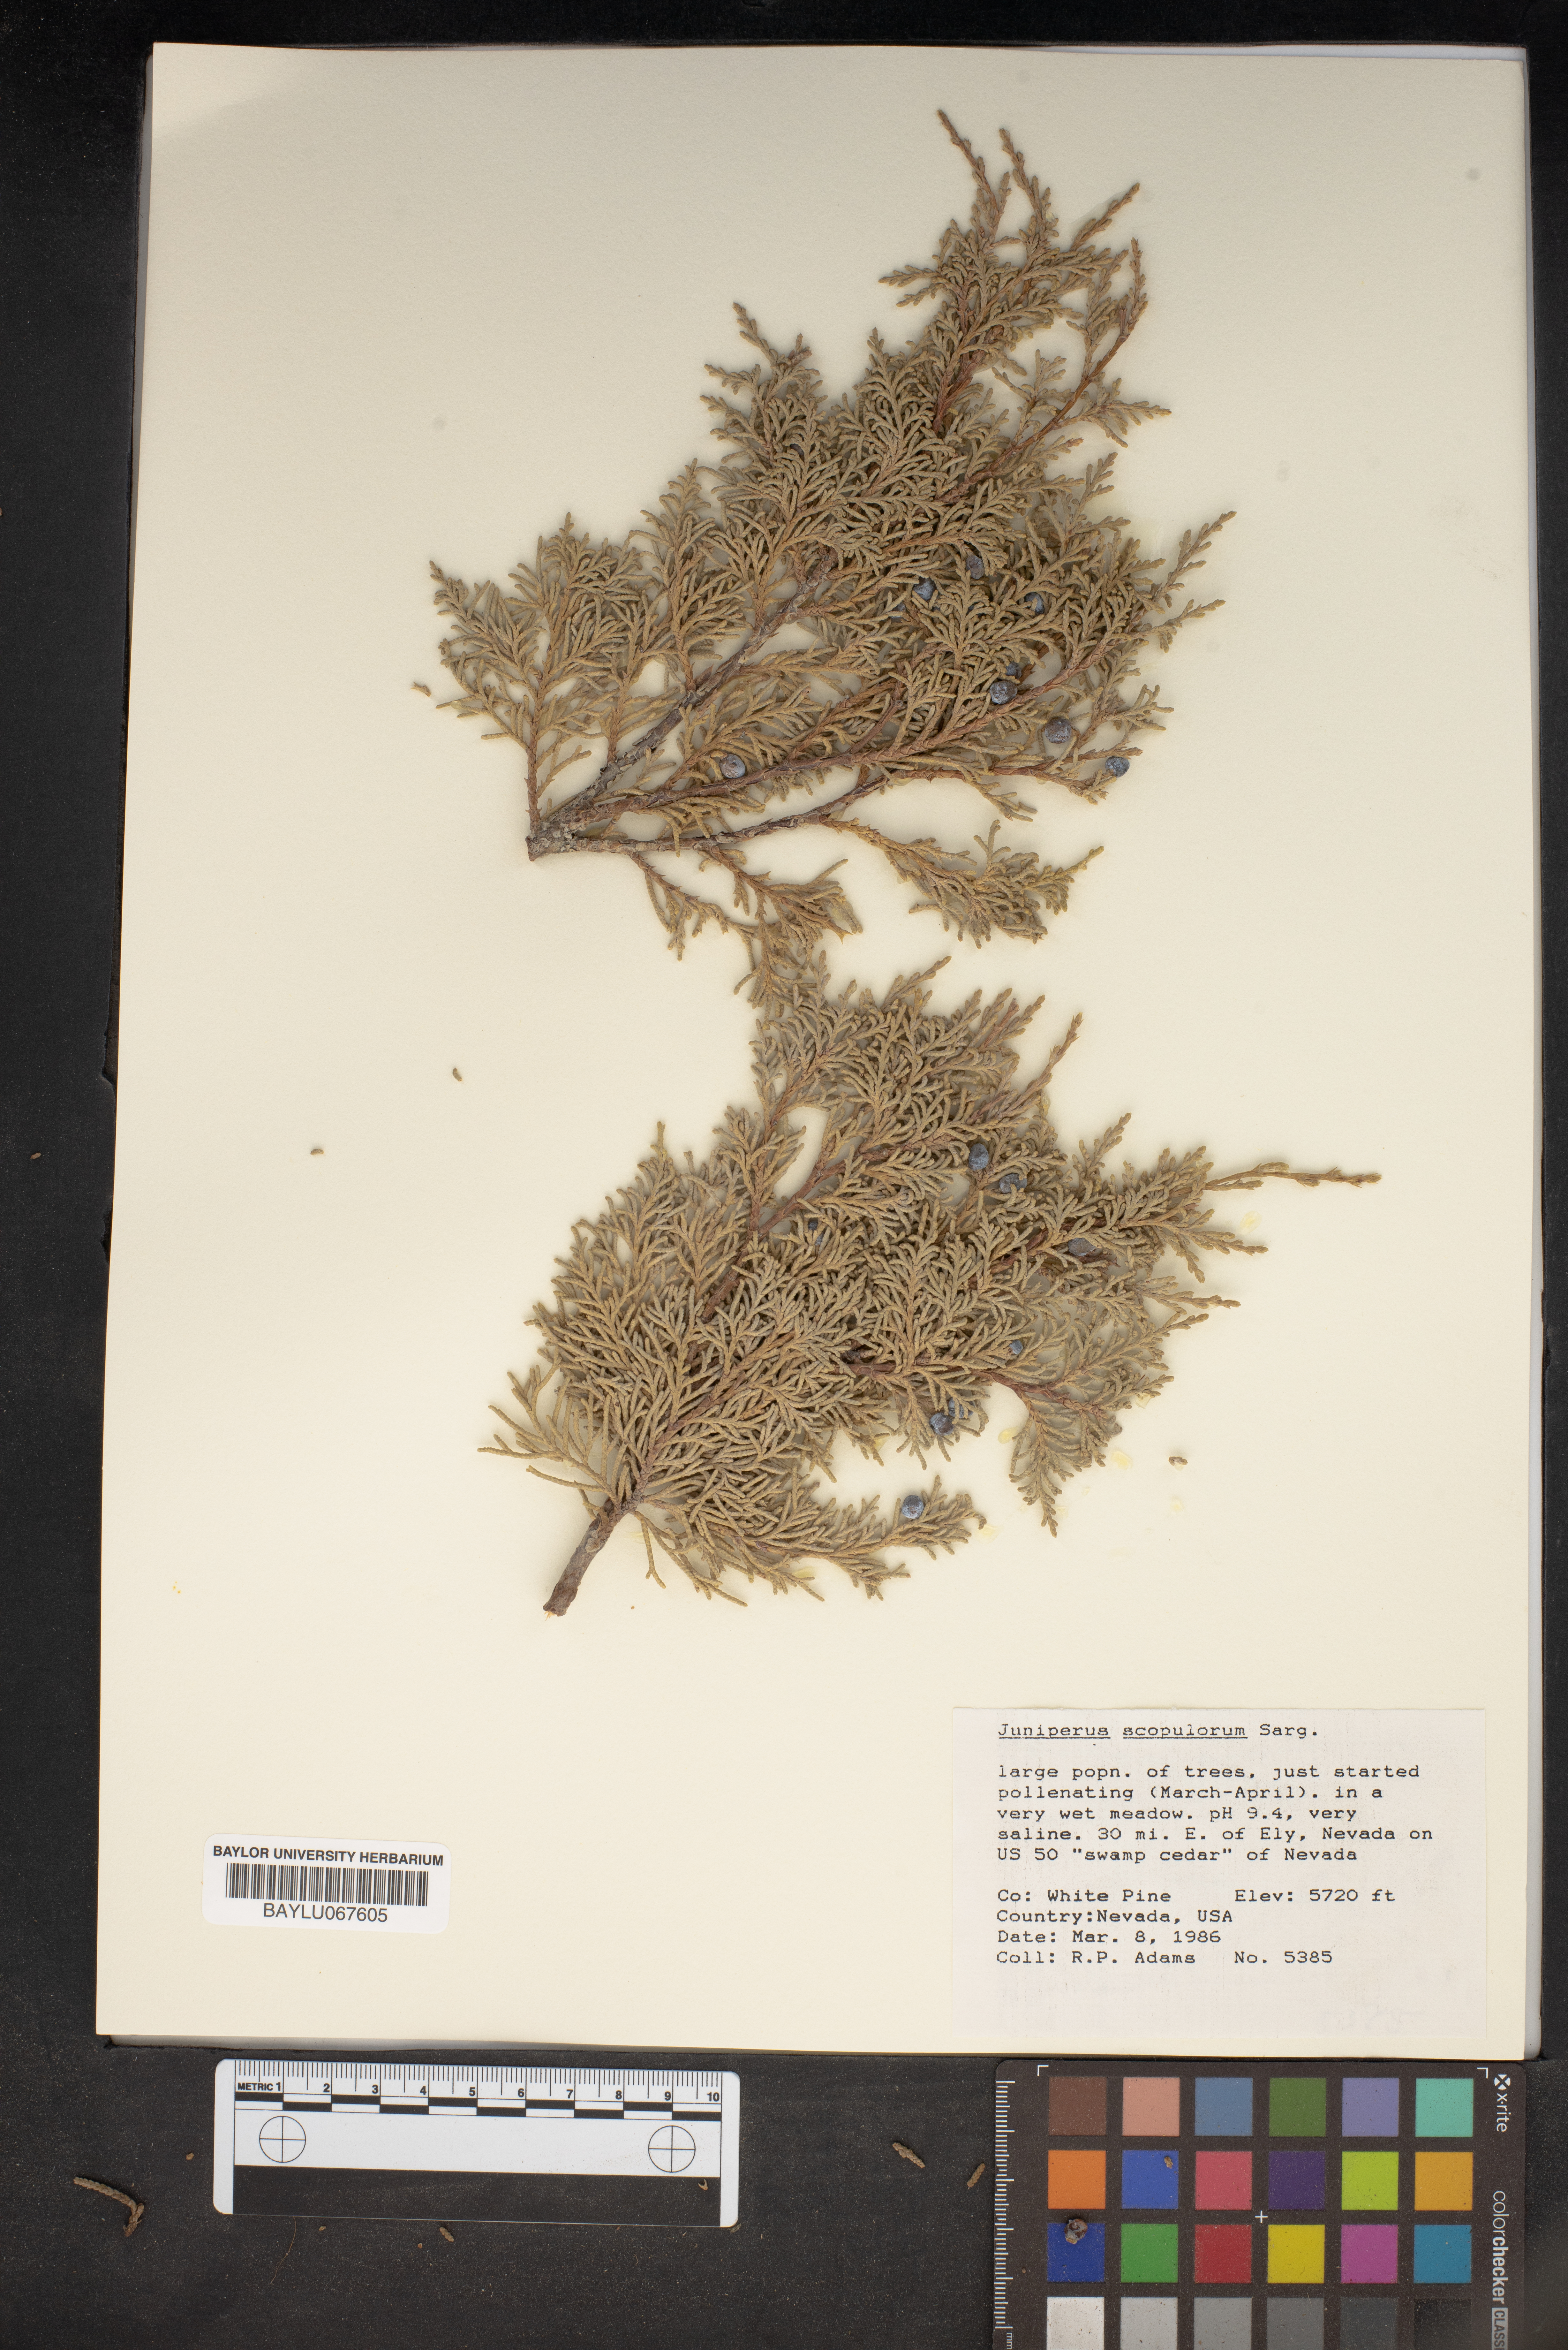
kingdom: Plantae
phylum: Tracheophyta
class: Pinopsida
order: Pinales
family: Cupressaceae
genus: Juniperus
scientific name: Juniperus scopulorum
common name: Rocky mountain juniper
